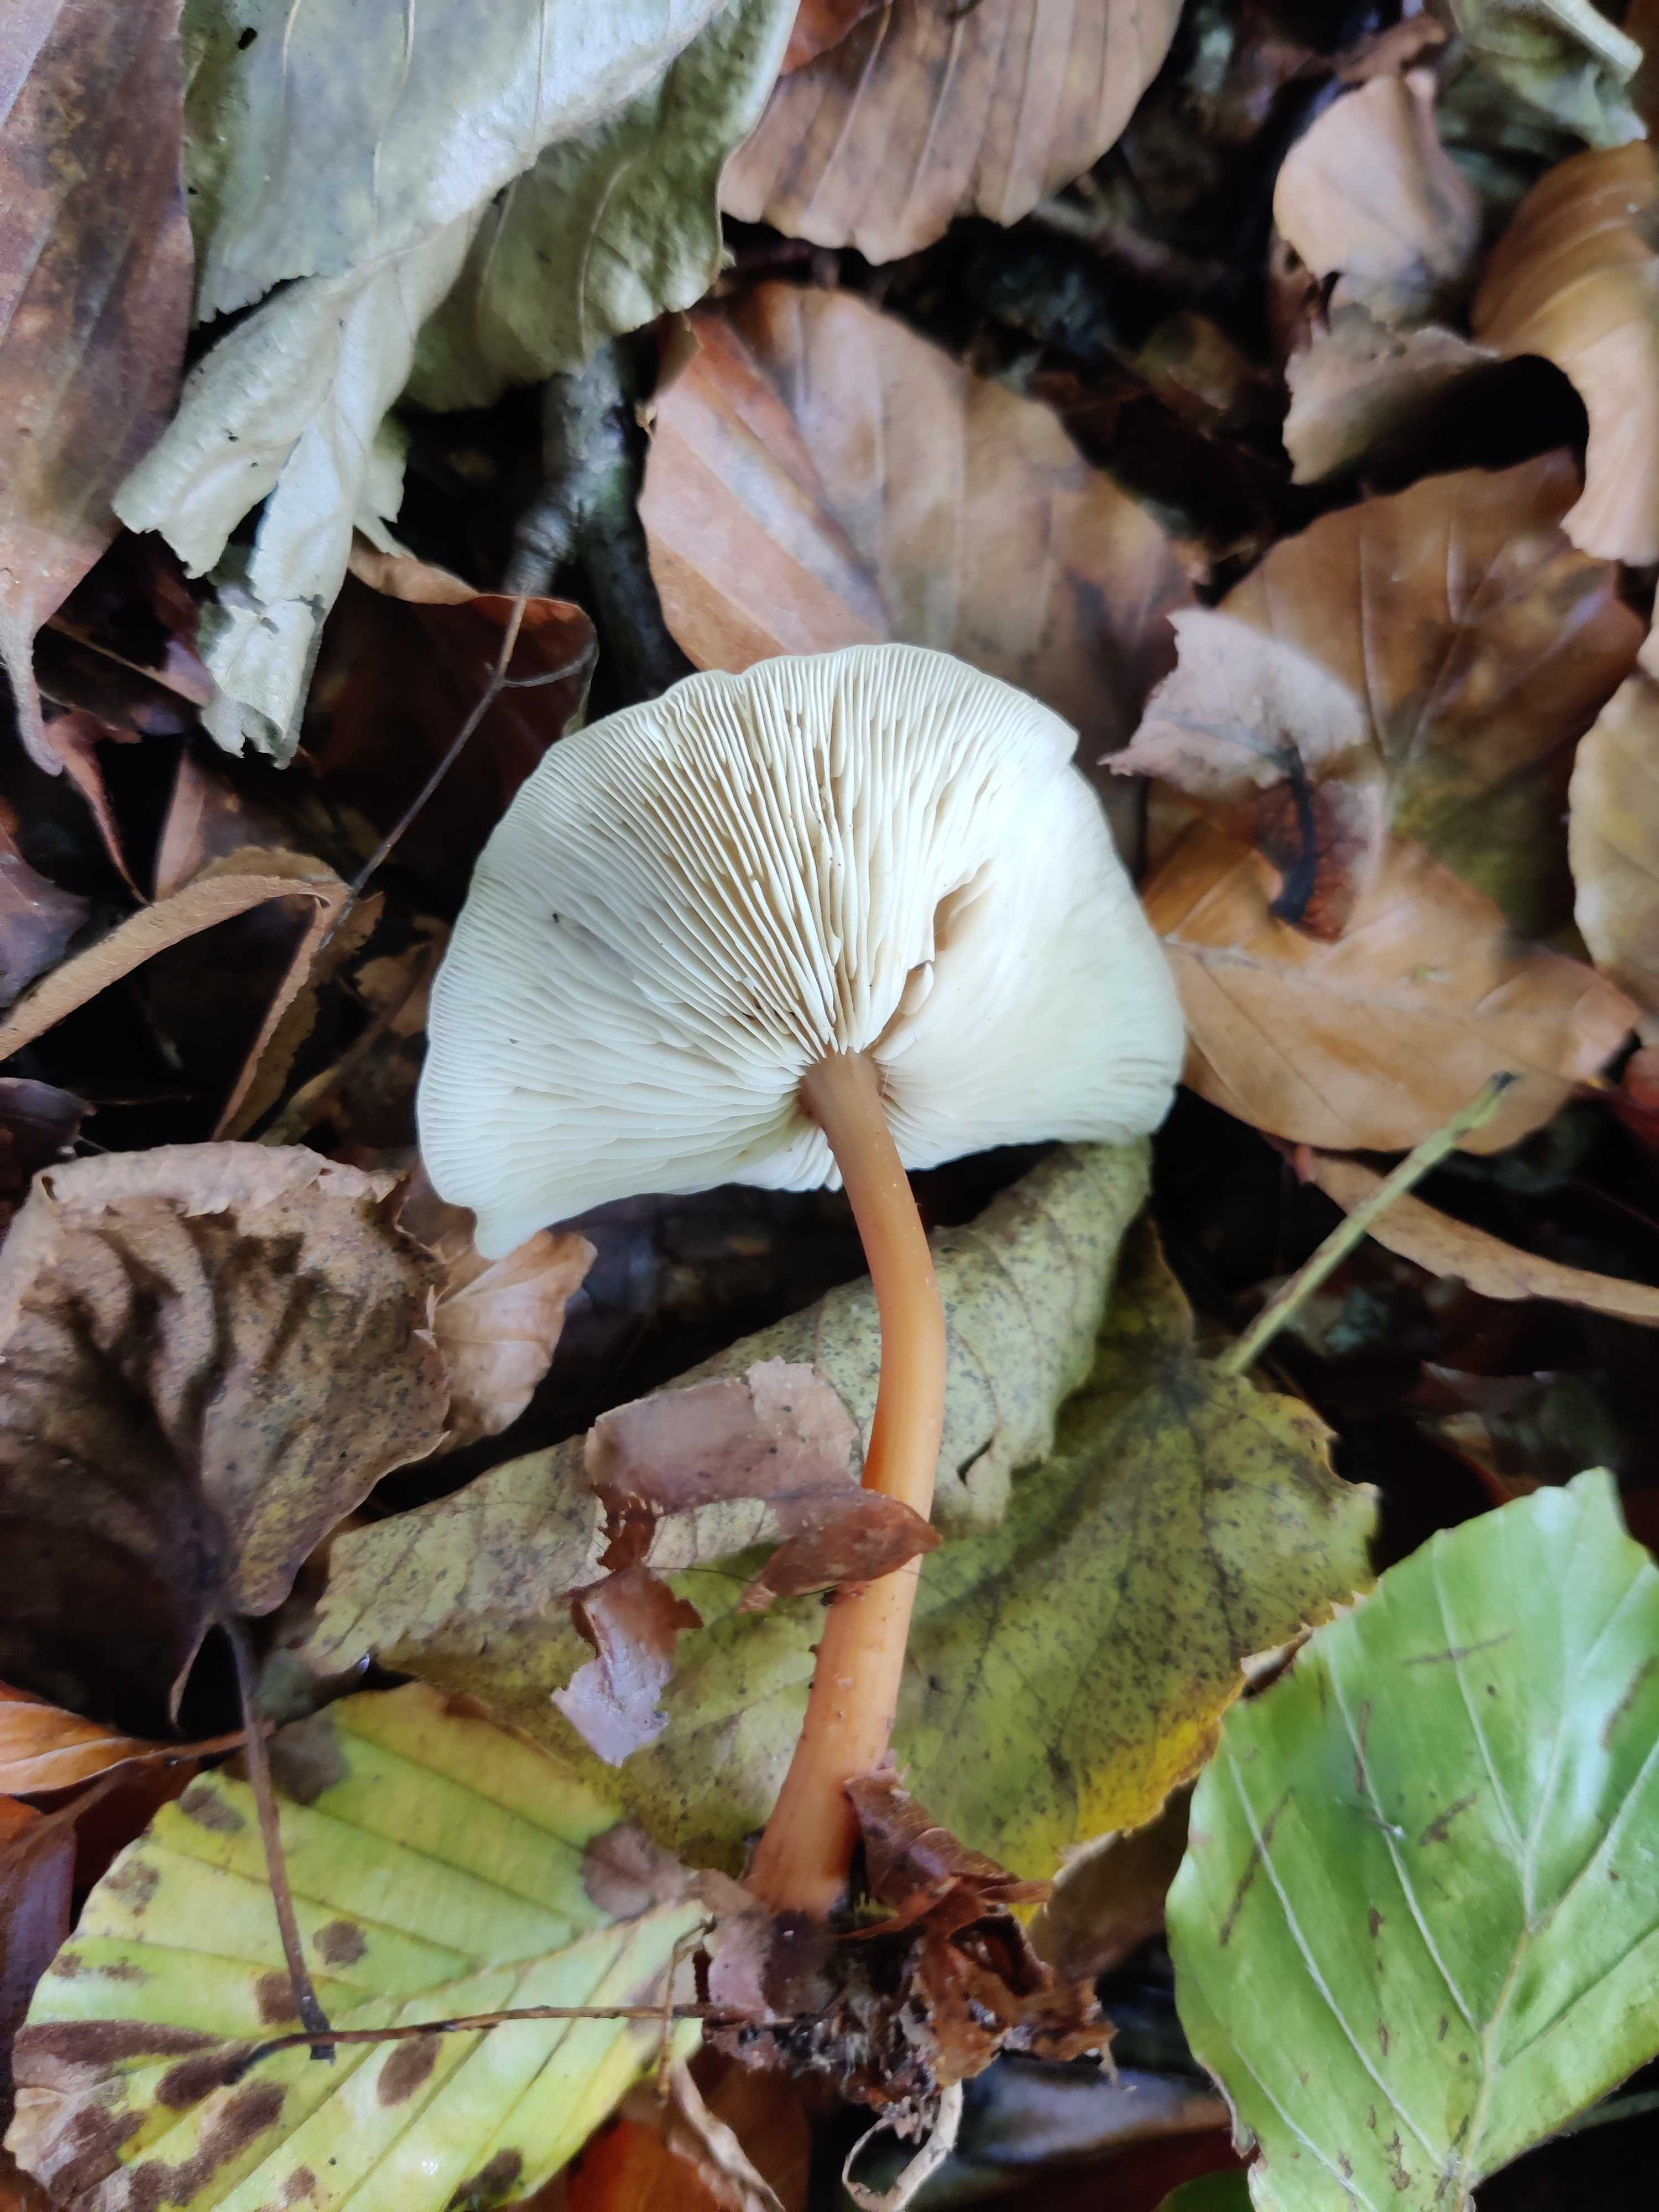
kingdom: Fungi
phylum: Basidiomycota
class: Agaricomycetes
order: Agaricales
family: Omphalotaceae
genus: Gymnopus
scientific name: Gymnopus dryophilus
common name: løv-fladhat
